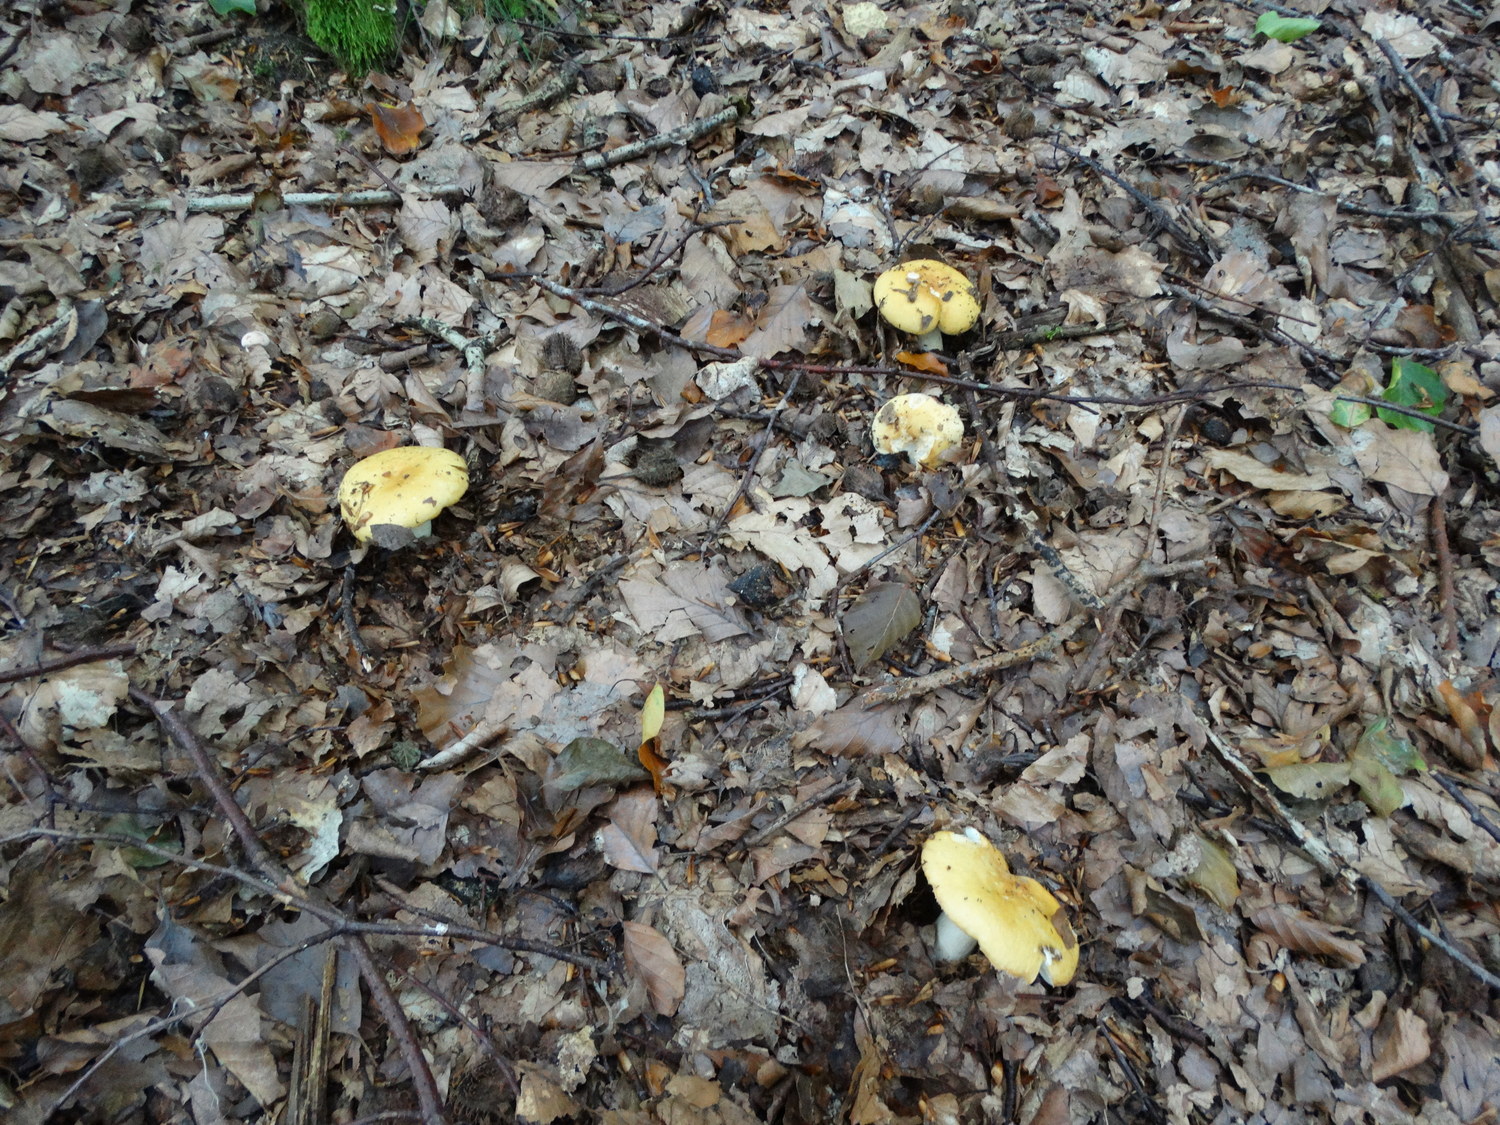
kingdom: Fungi
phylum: Basidiomycota
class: Agaricomycetes
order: Russulales
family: Russulaceae
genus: Russula
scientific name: Russula ochroleuca
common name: okkergul skørhat
